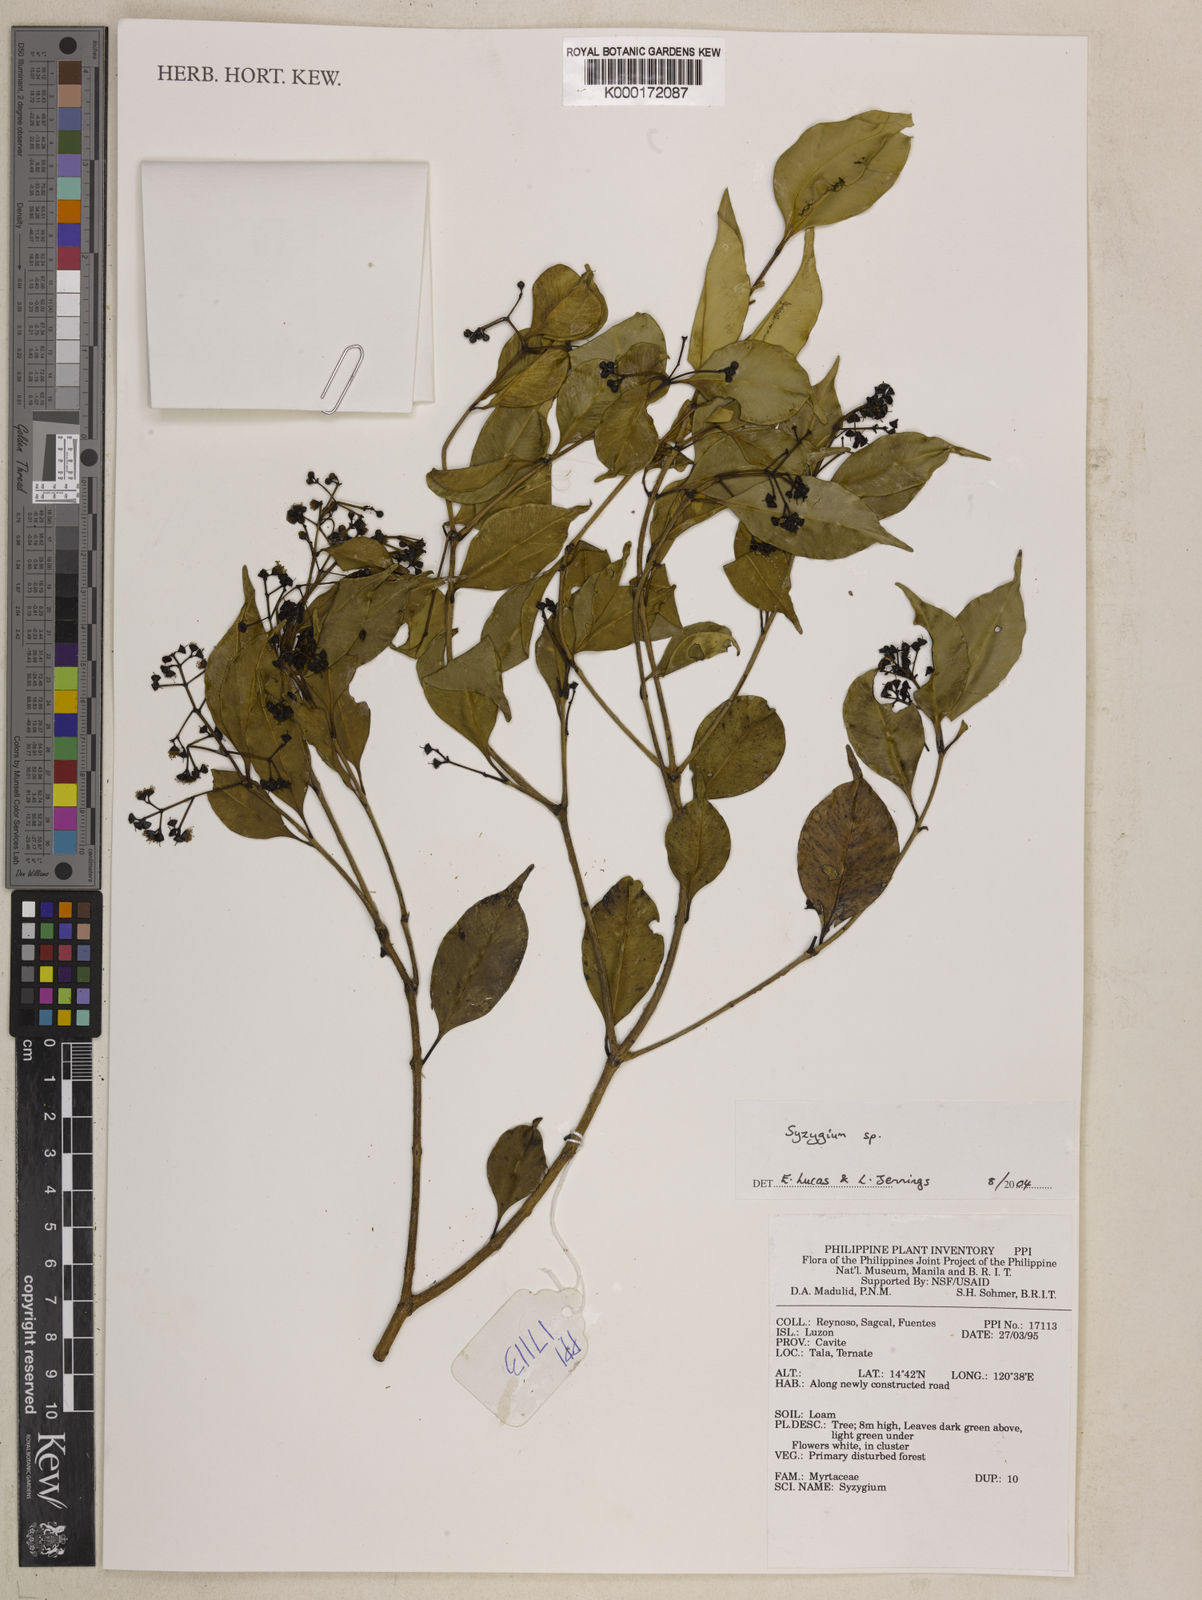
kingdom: Plantae
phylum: Tracheophyta
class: Magnoliopsida
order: Myrtales
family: Myrtaceae
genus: Syzygium
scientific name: Syzygium
